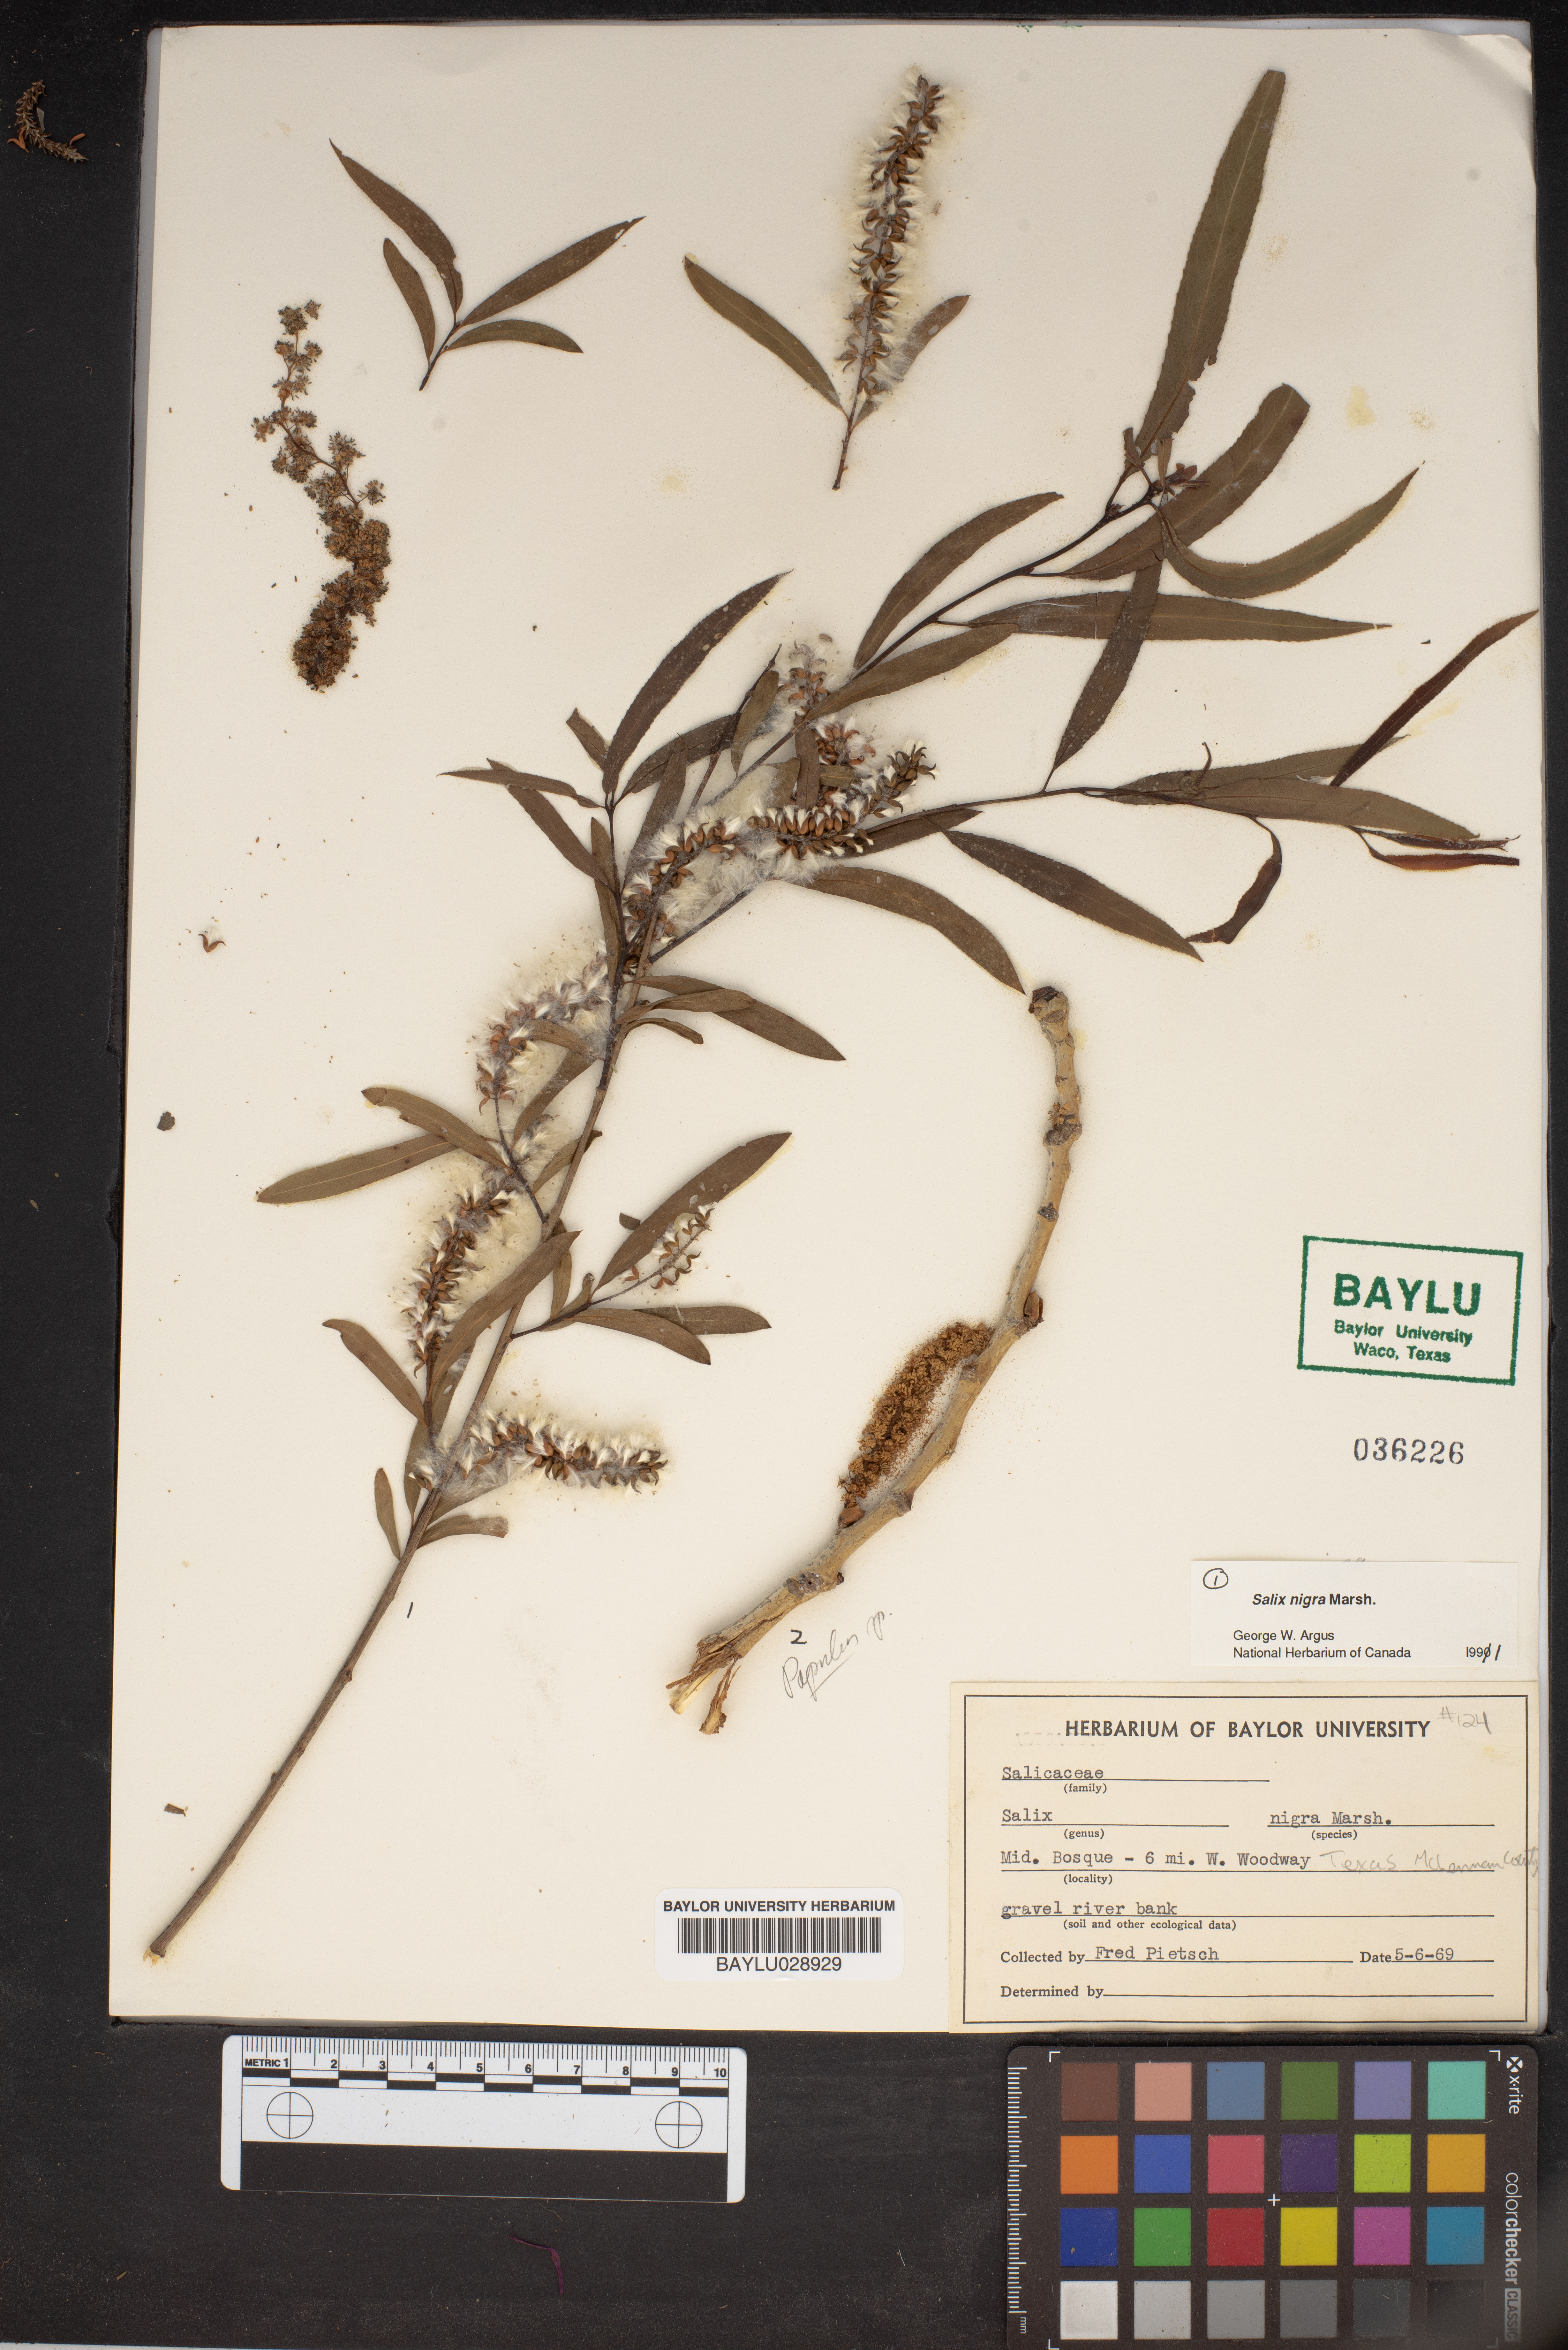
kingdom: Plantae
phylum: Tracheophyta
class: Magnoliopsida
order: Malpighiales
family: Salicaceae
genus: Salix
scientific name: Salix nigra
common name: Black willow
